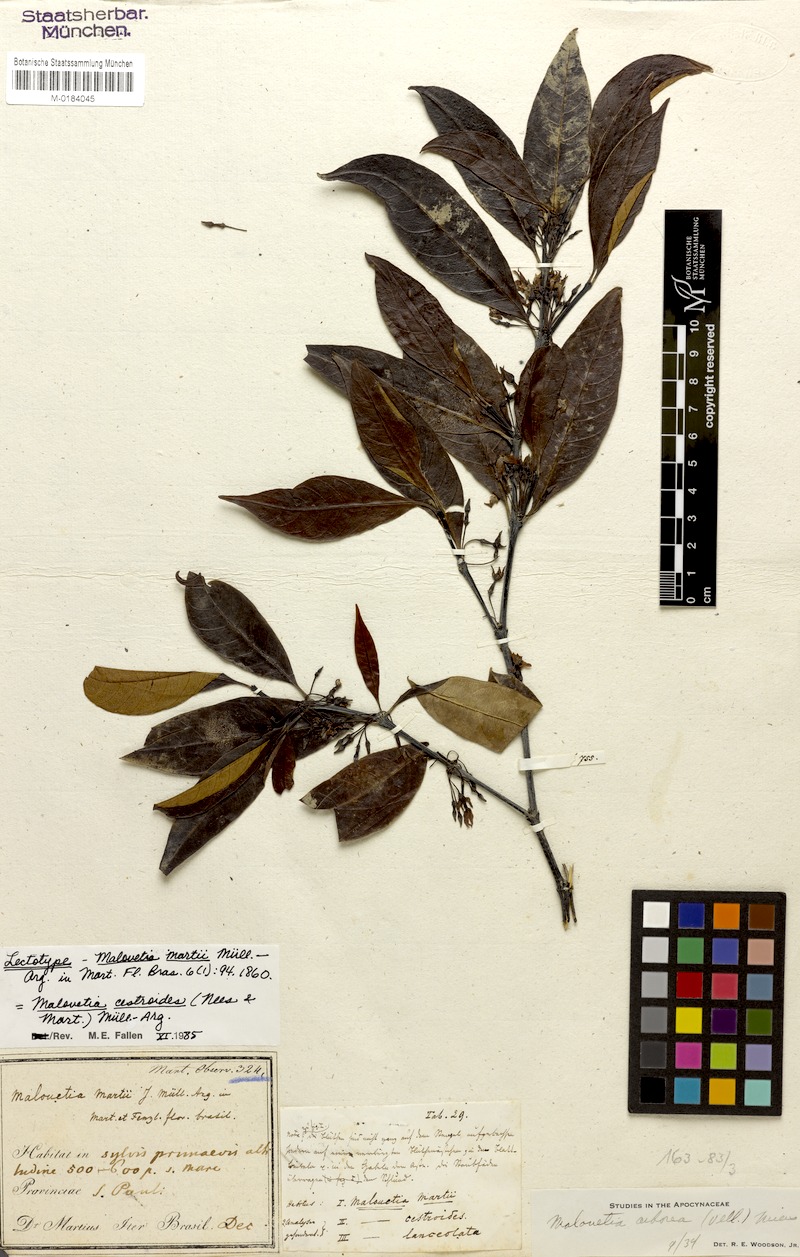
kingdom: Plantae
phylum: Tracheophyta
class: Magnoliopsida
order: Gentianales
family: Apocynaceae
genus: Malouetia
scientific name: Malouetia cestroides
